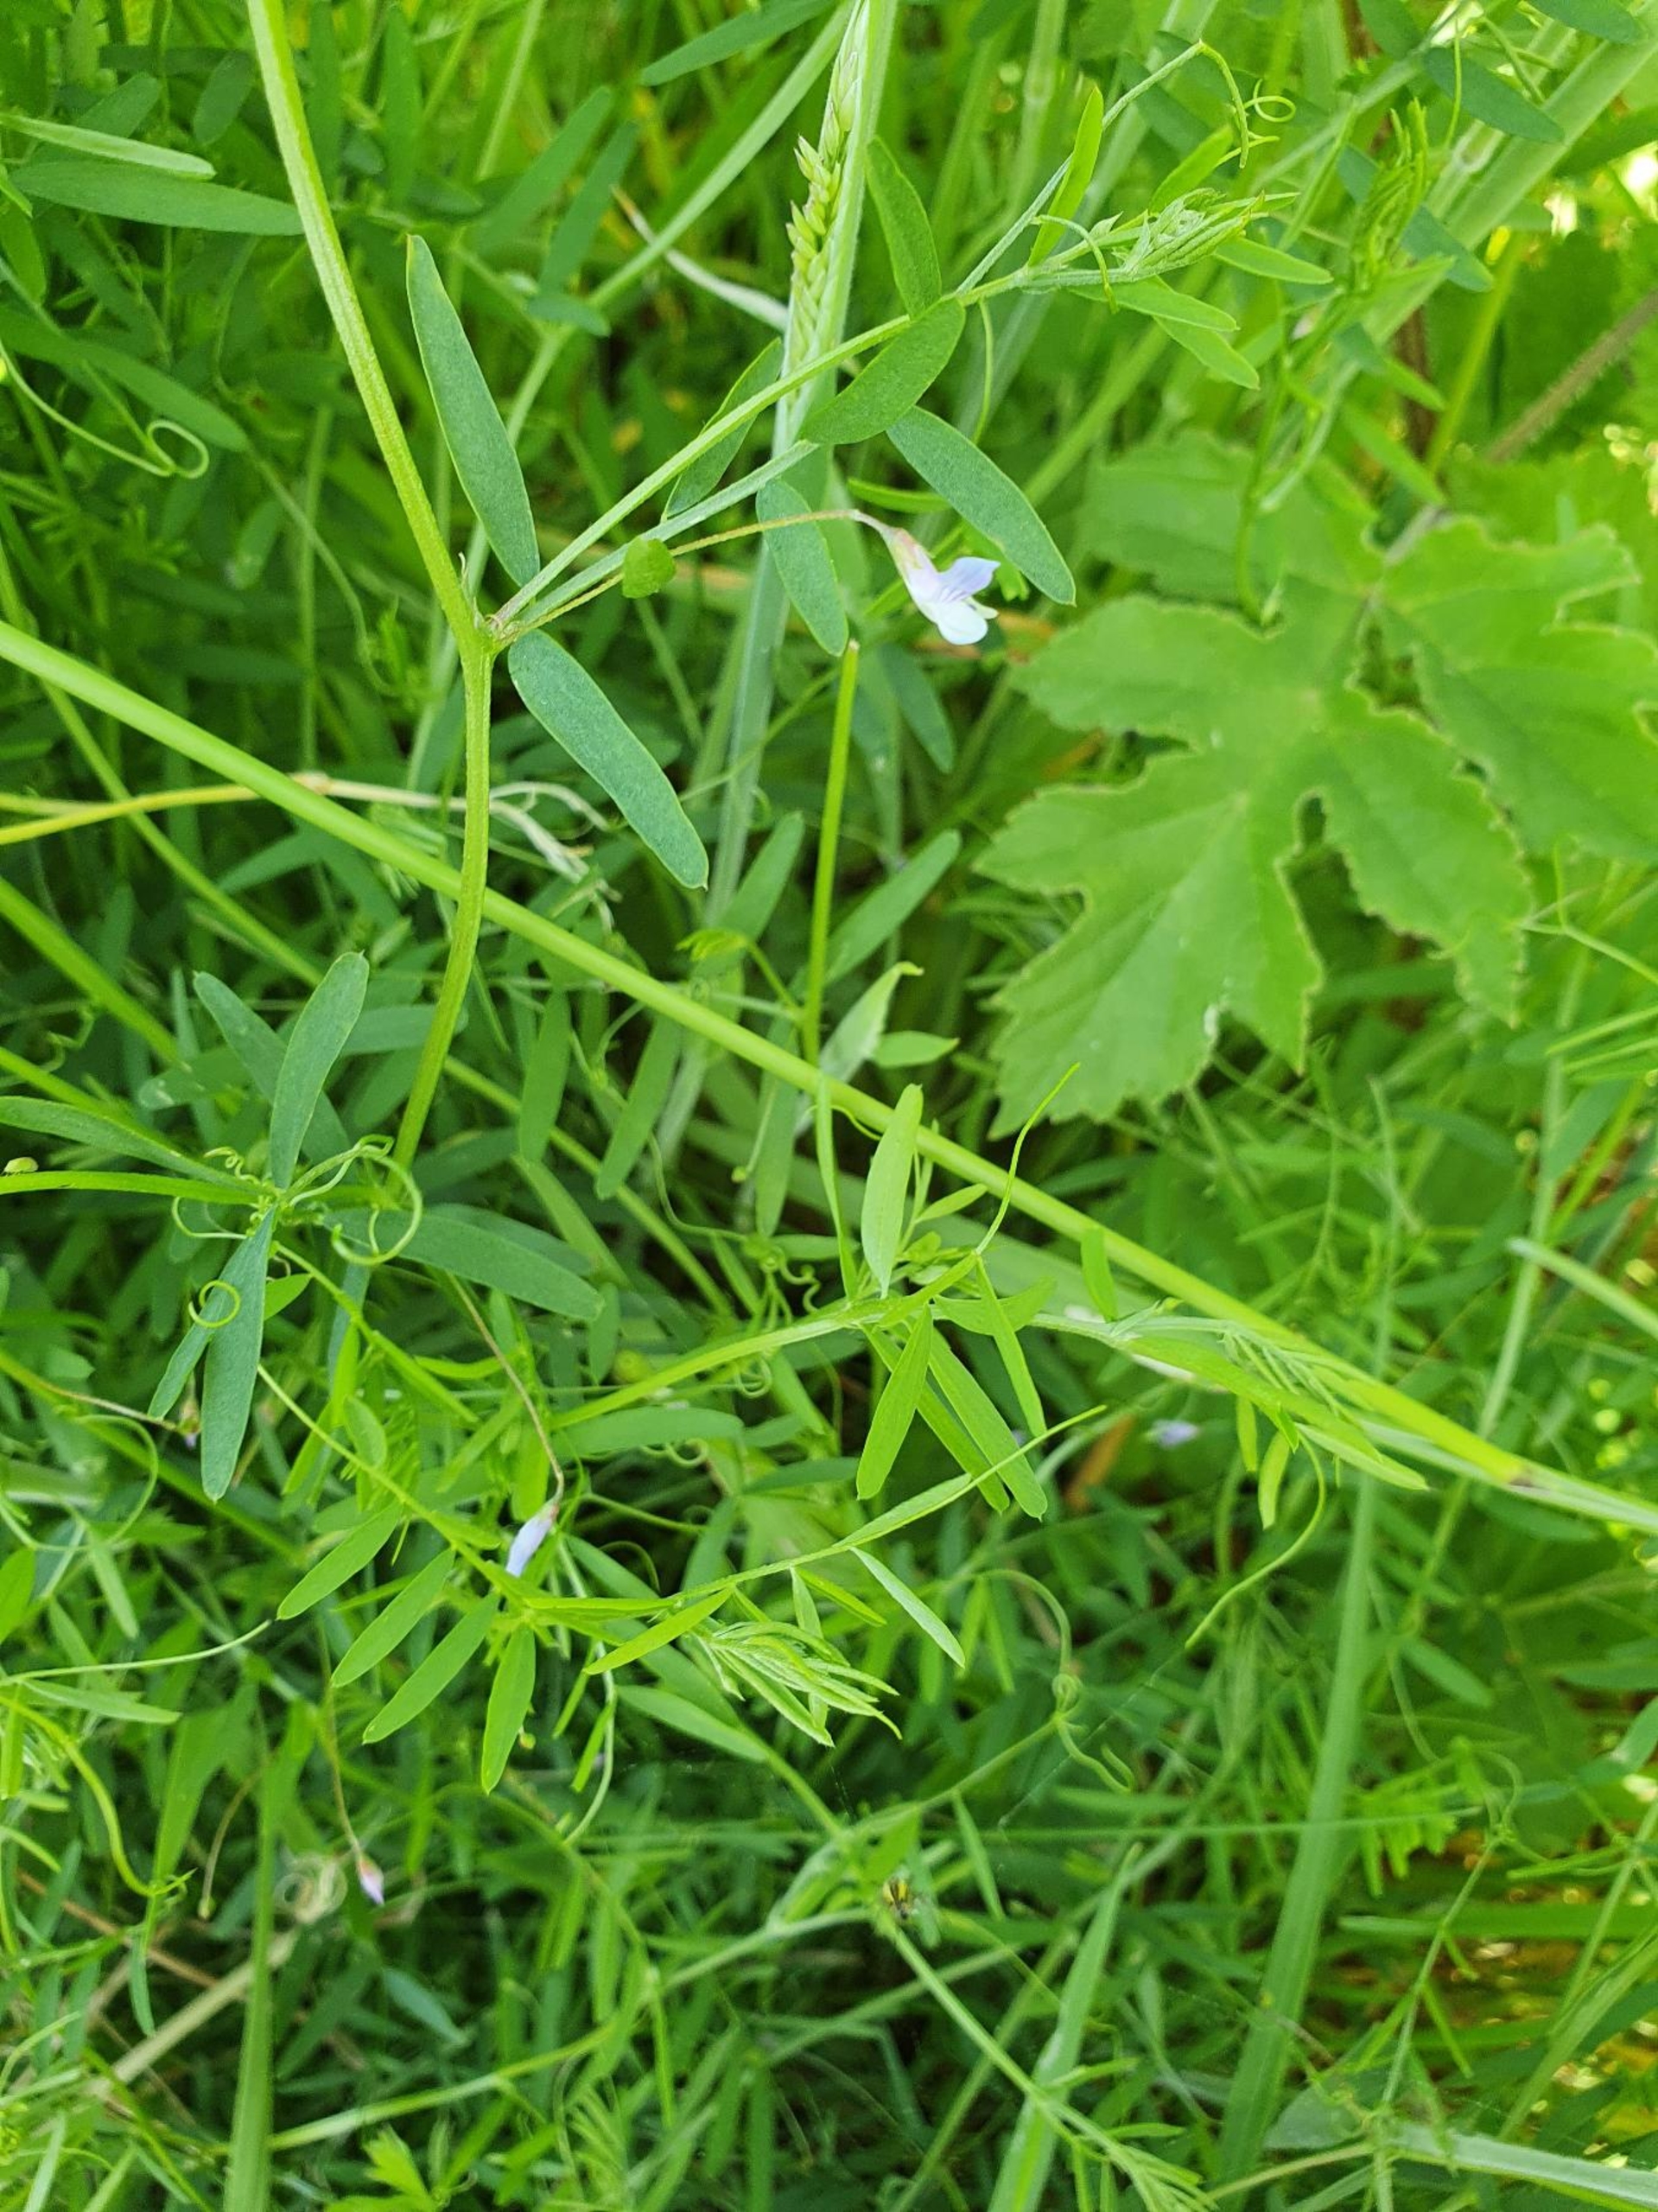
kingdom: Plantae
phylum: Tracheophyta
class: Magnoliopsida
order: Fabales
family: Fabaceae
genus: Vicia
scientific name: Vicia tetrasperma
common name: Tadder-vikke
